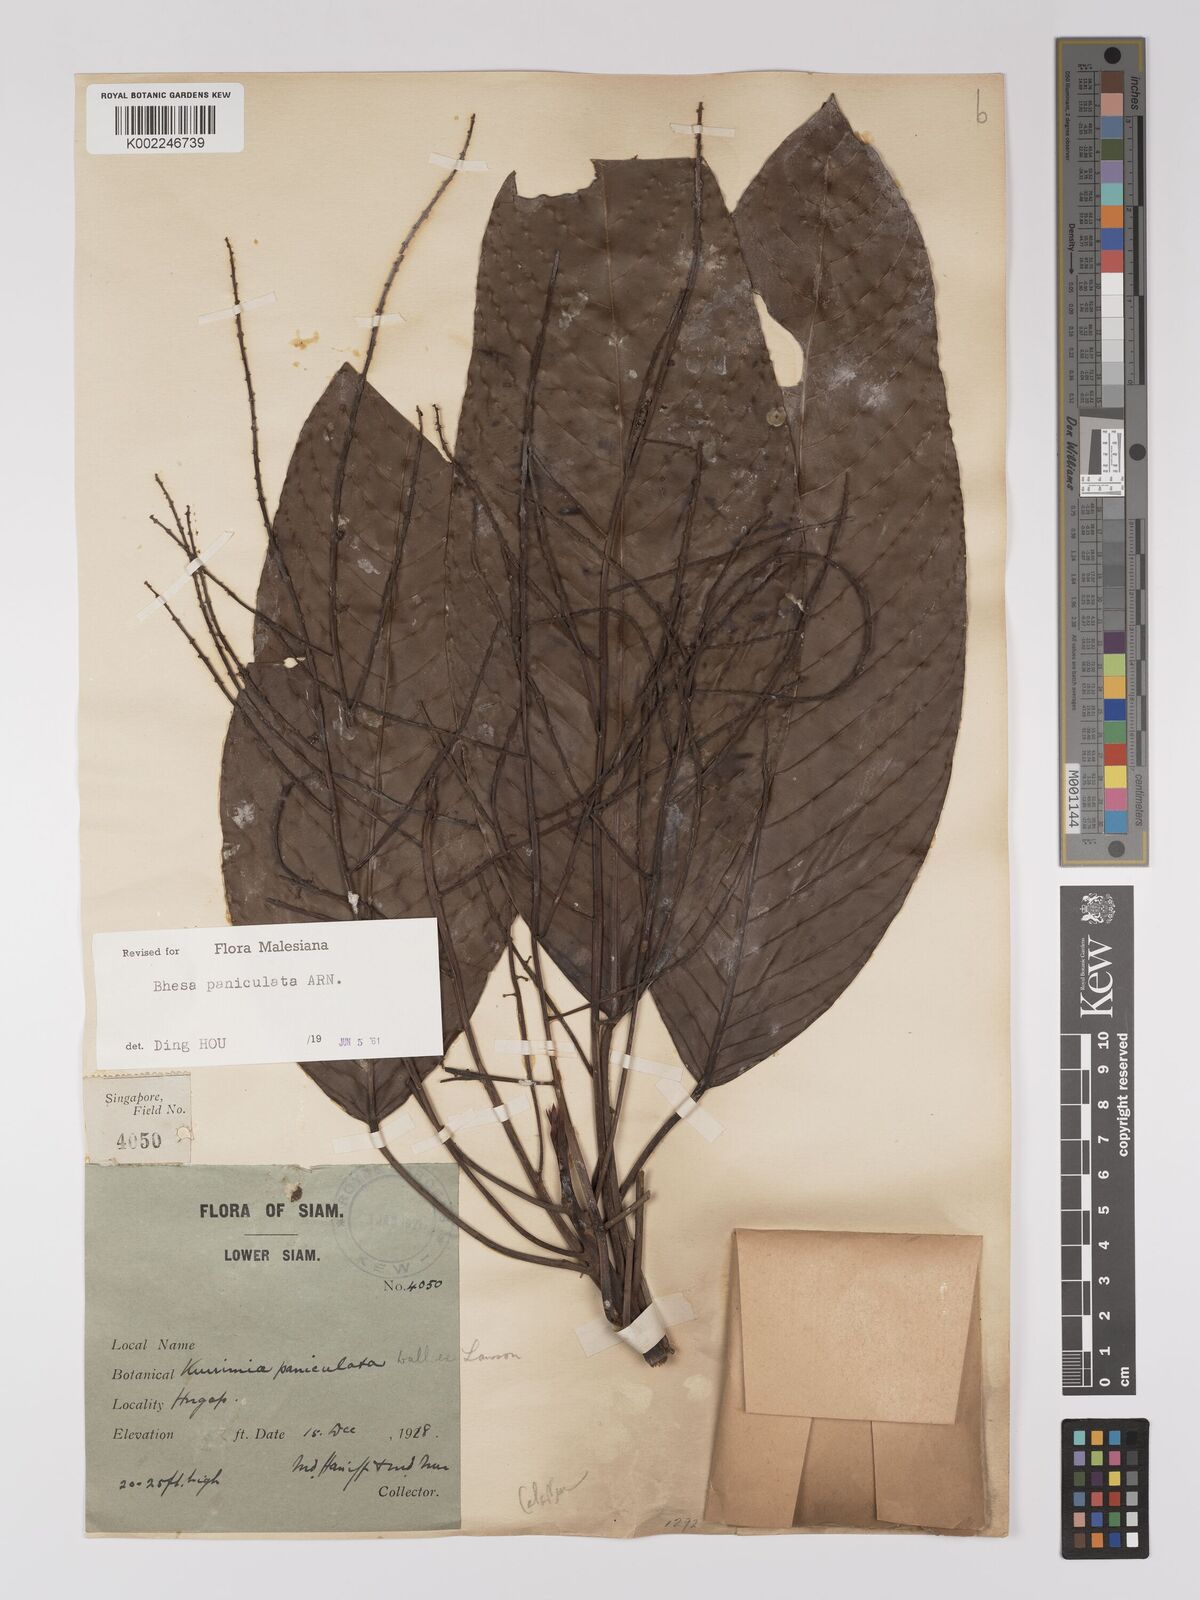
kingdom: Plantae
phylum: Tracheophyta
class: Magnoliopsida
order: Malpighiales
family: Centroplacaceae
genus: Bhesa
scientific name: Bhesa paniculata
